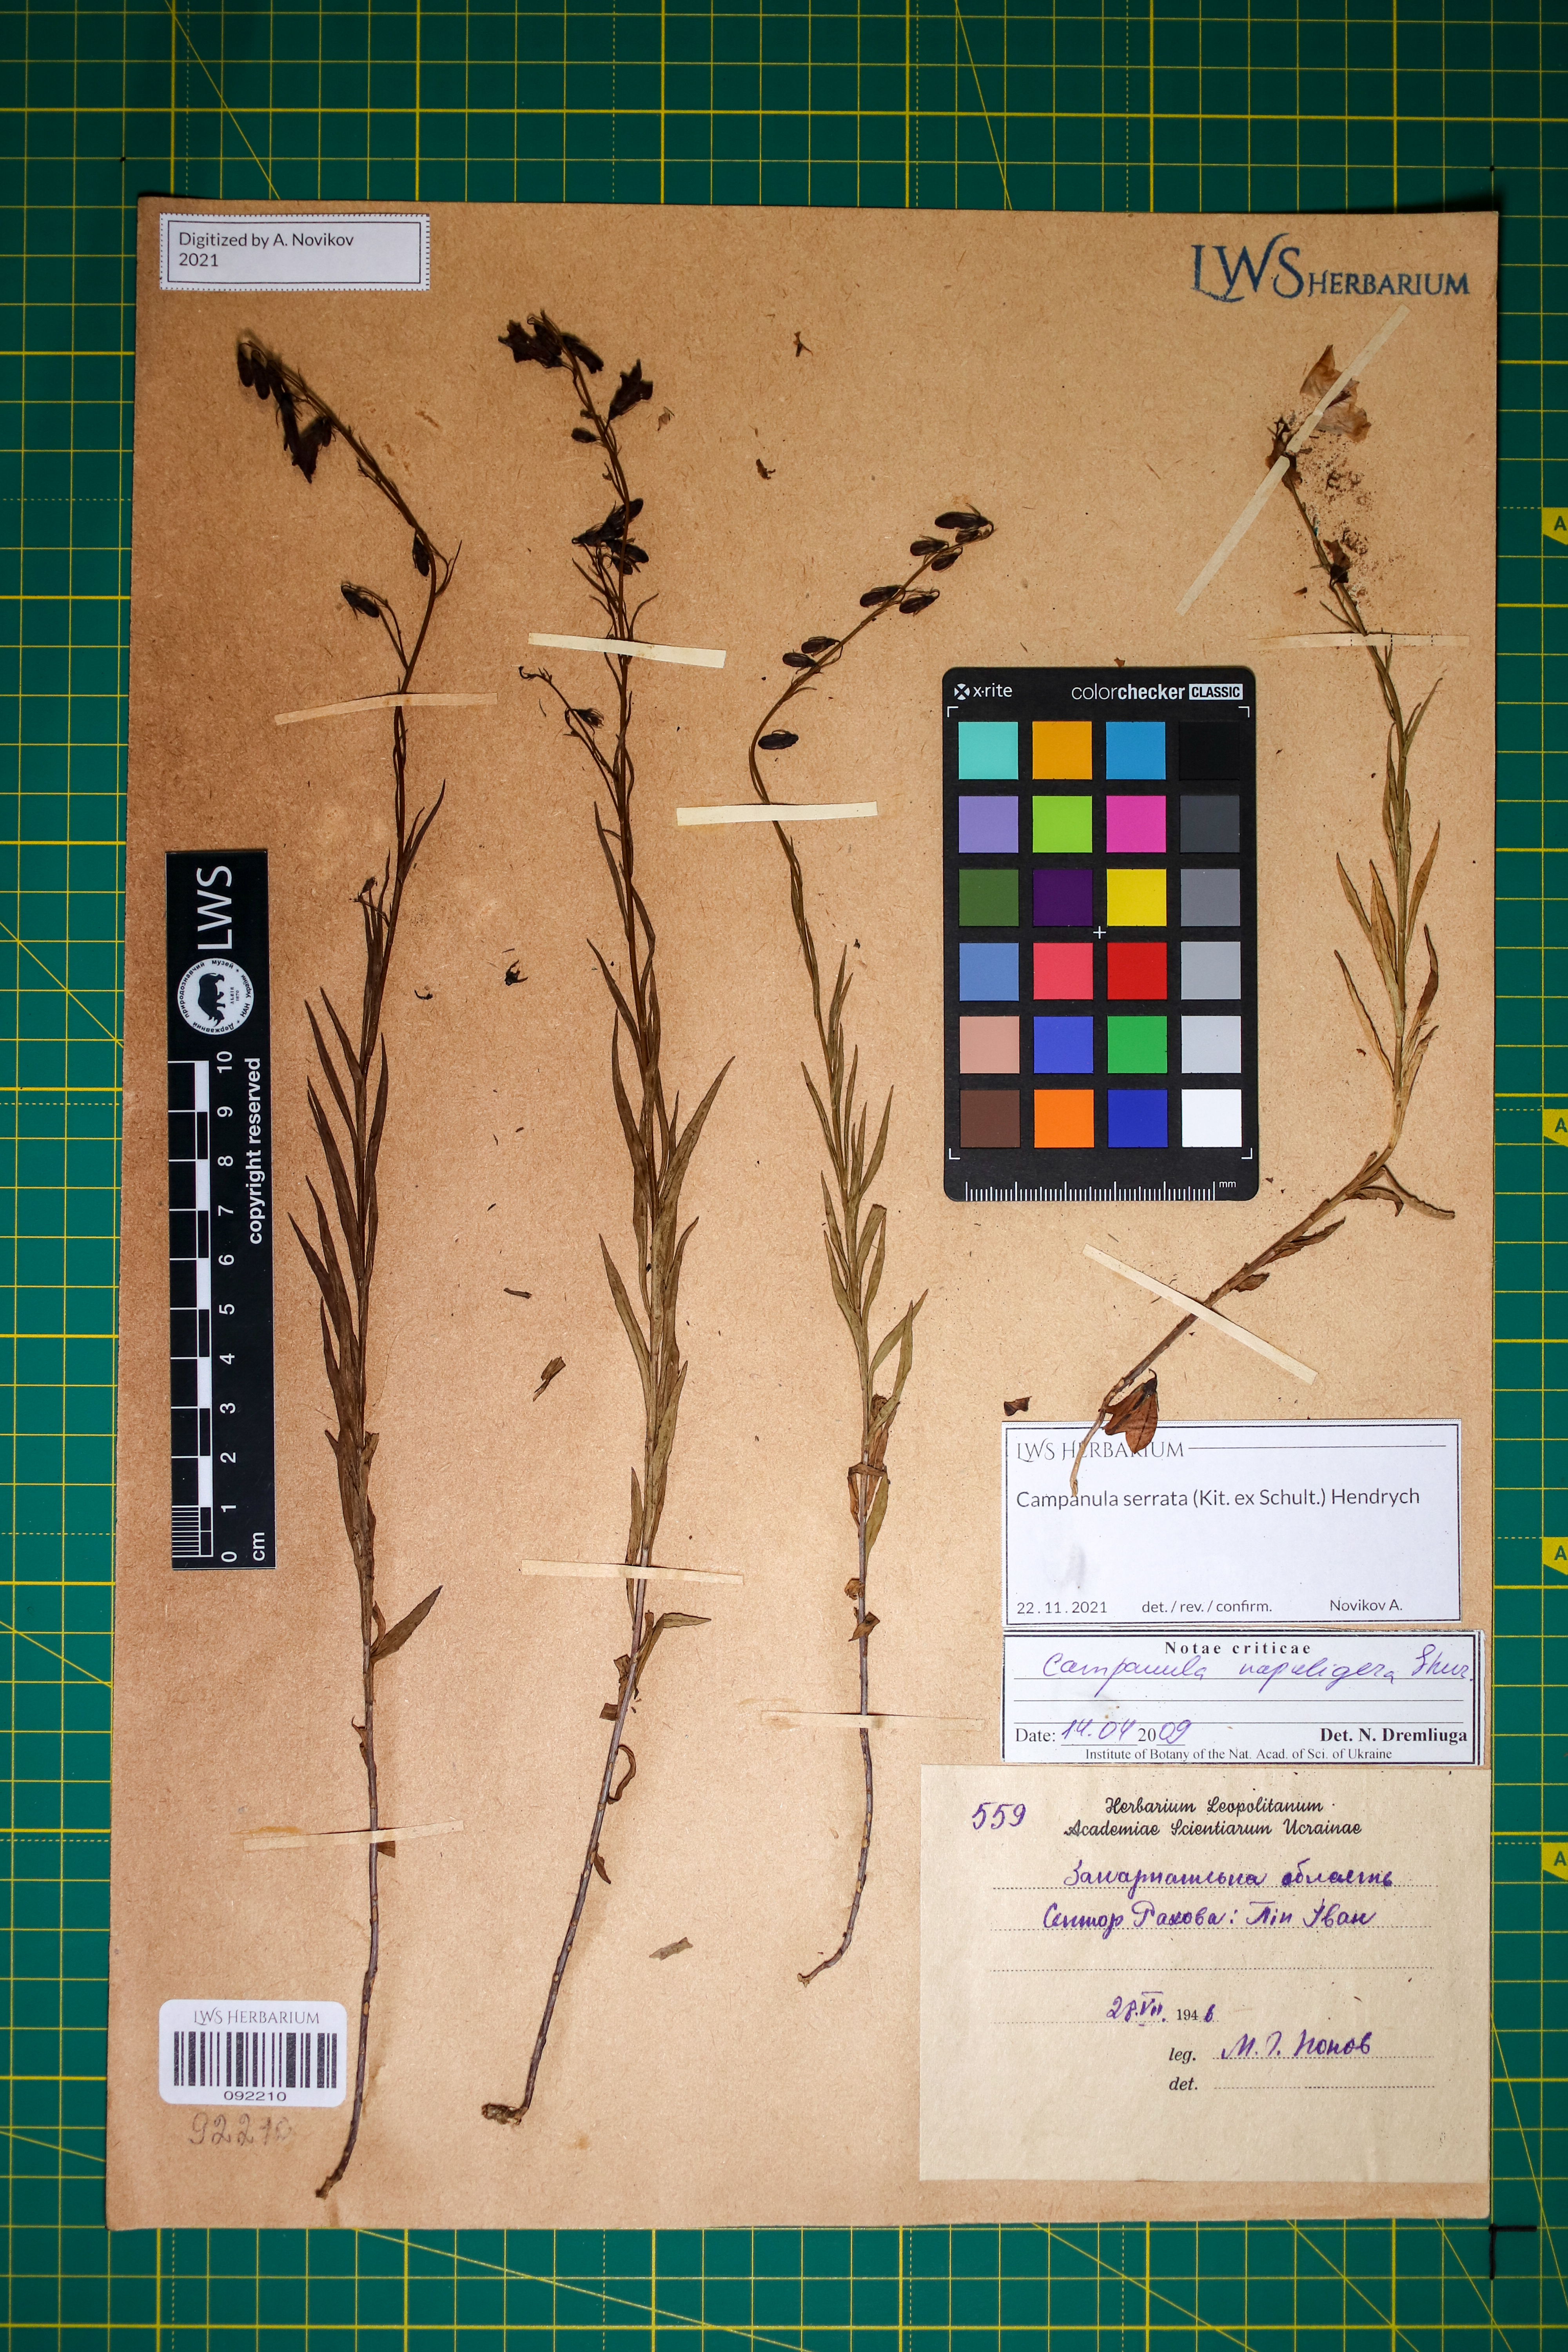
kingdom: Plantae
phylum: Tracheophyta
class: Magnoliopsida
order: Asterales
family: Campanulaceae
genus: Campanula
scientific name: Campanula serrata
